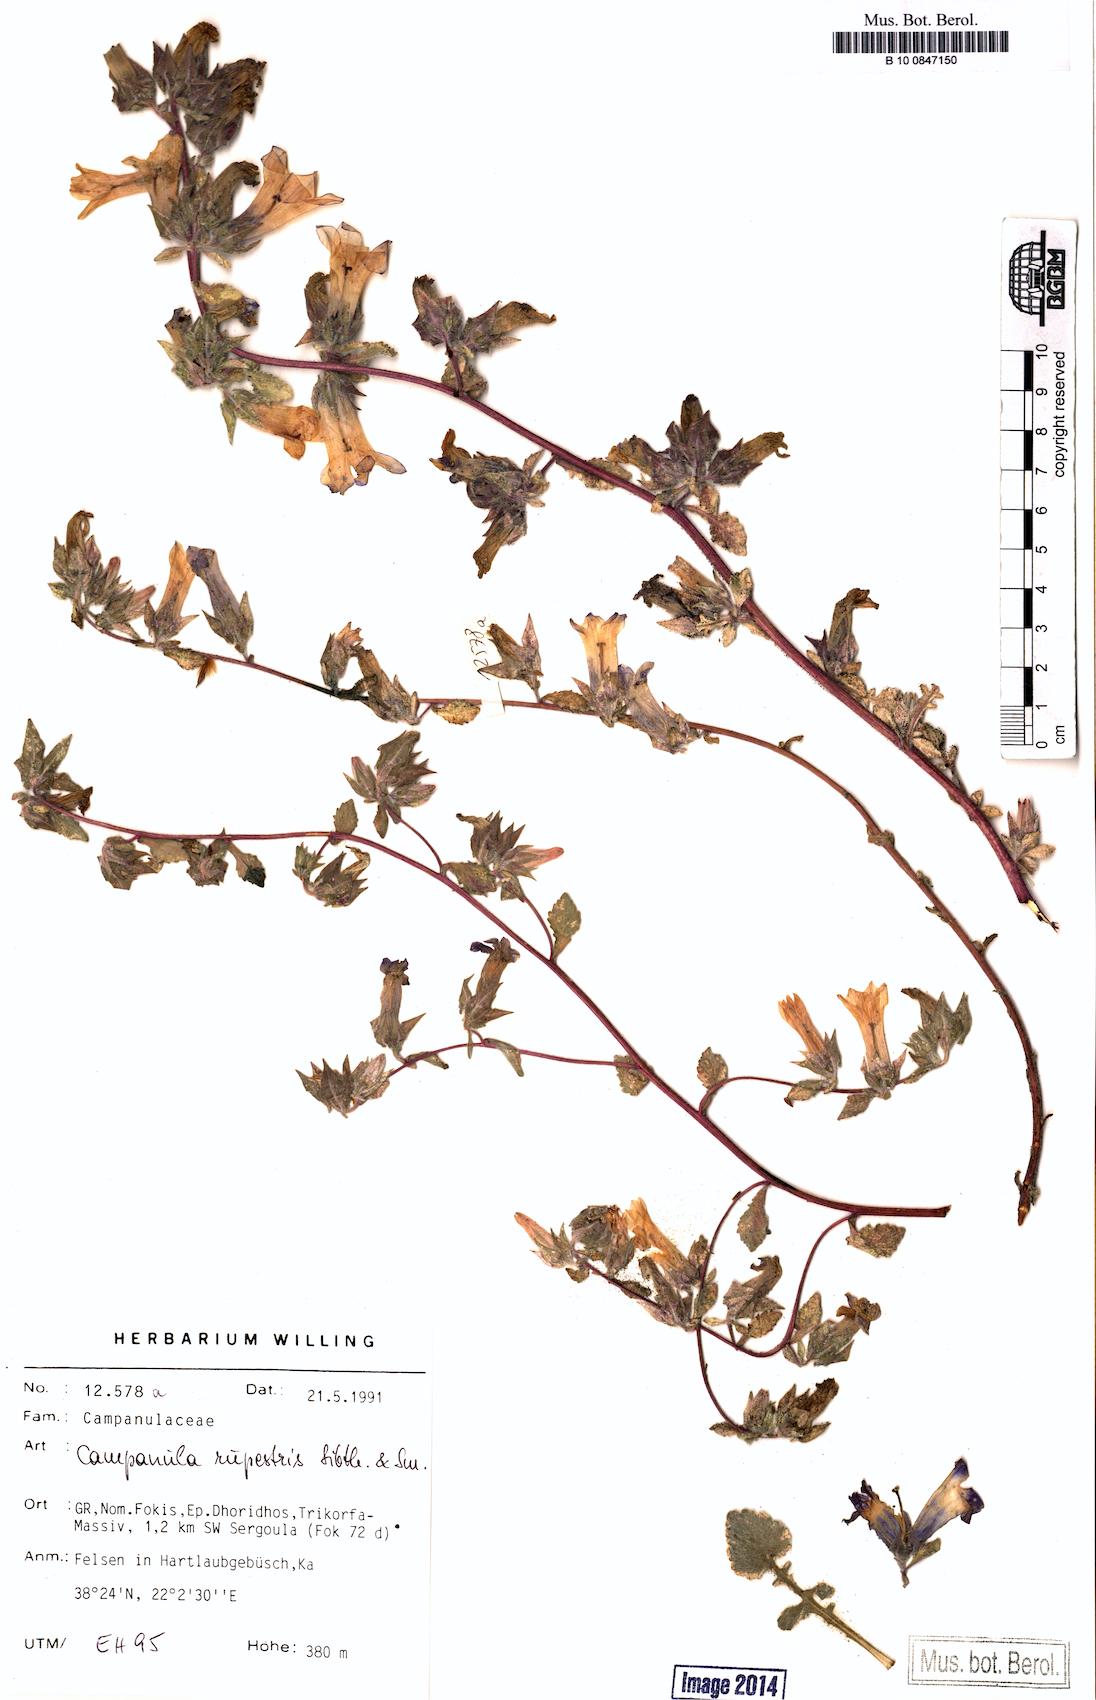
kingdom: Plantae
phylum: Tracheophyta
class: Magnoliopsida
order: Asterales
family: Campanulaceae
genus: Campanula
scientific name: Campanula rupestris
